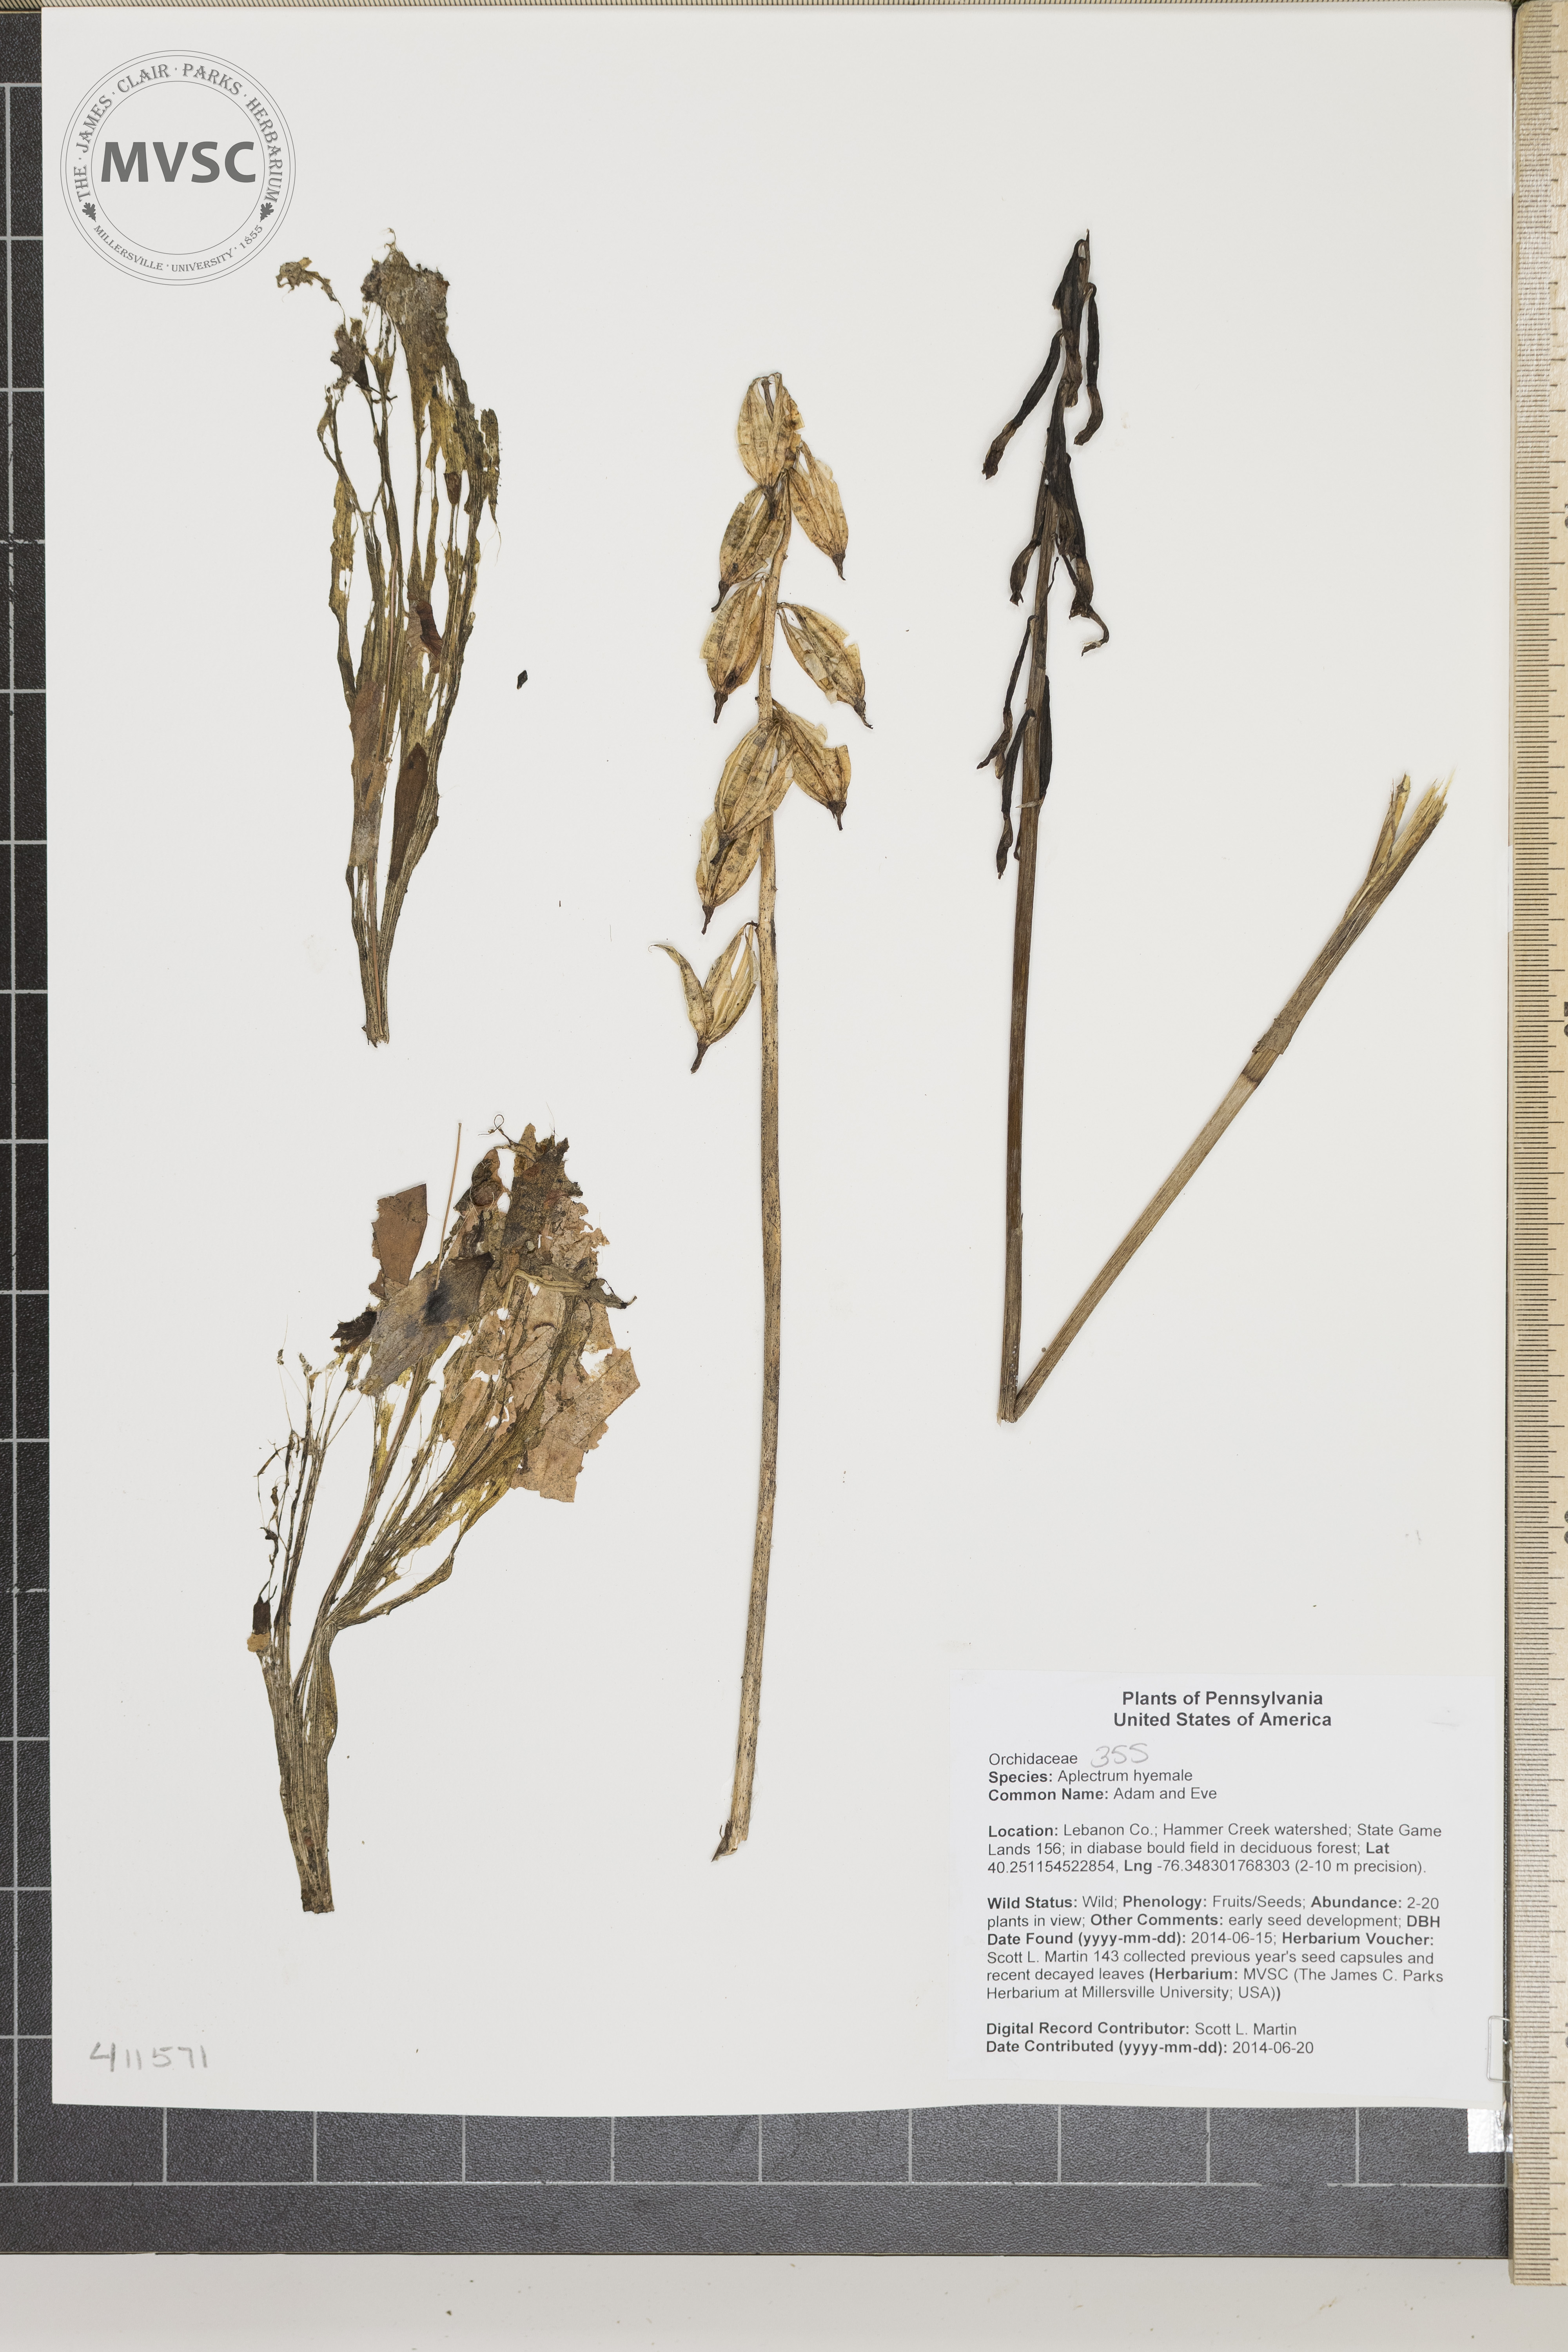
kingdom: Plantae
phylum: Tracheophyta
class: Liliopsida
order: Asparagales
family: Orchidaceae
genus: Aplectrum
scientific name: Aplectrum hyemale
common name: Adam and Eve
